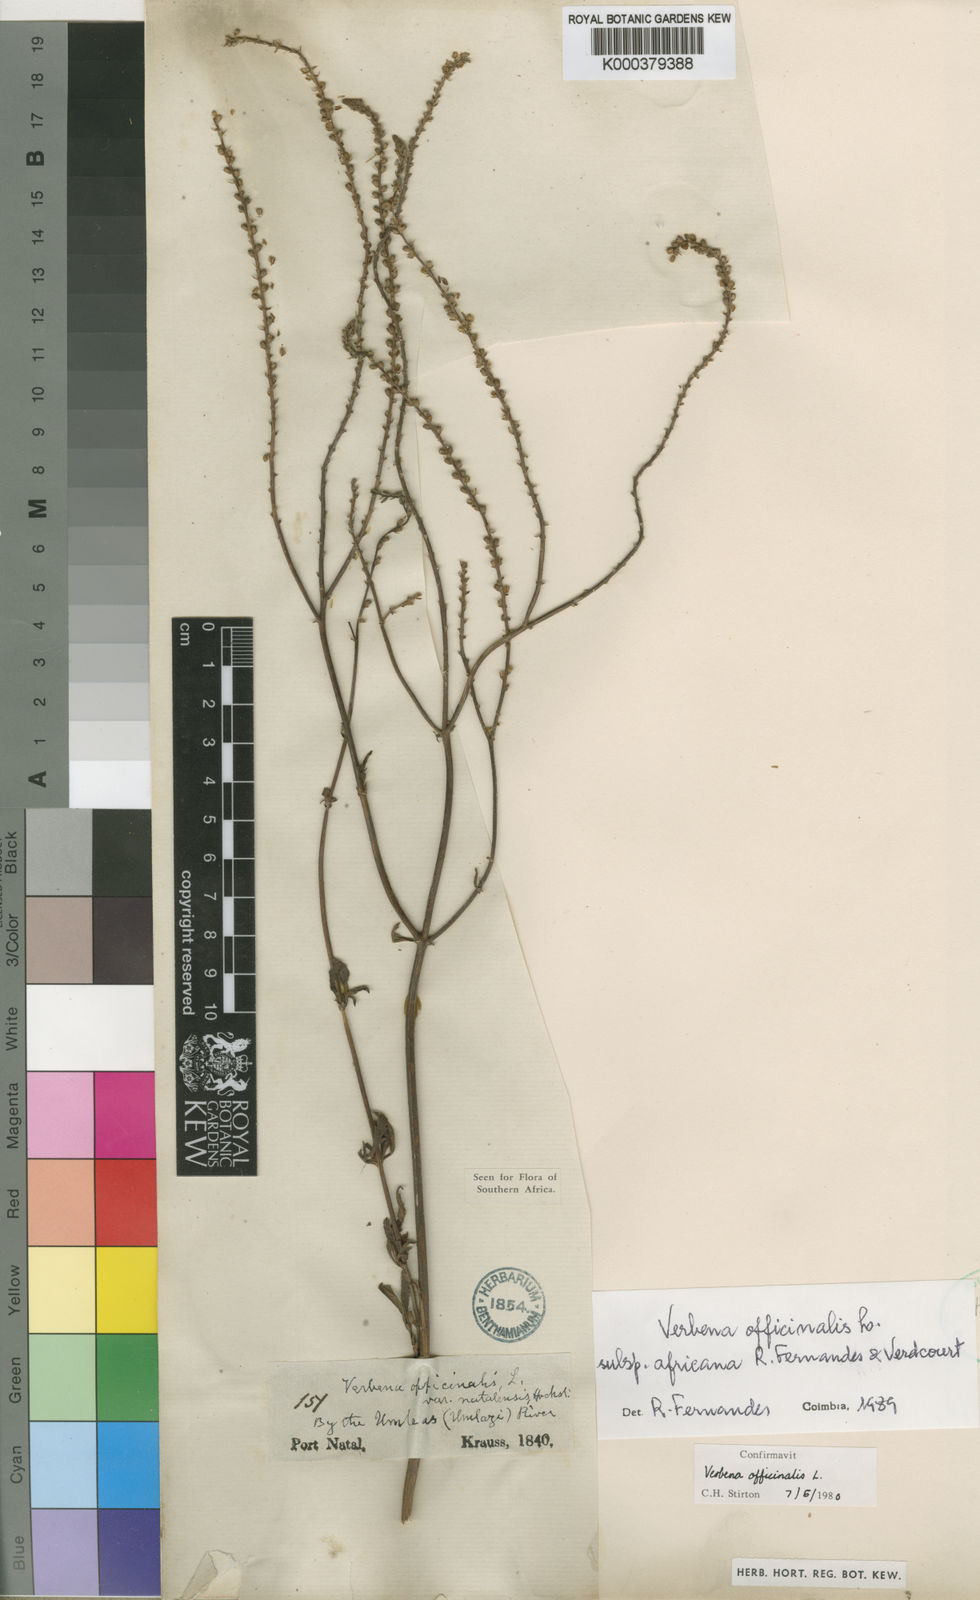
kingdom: Plantae
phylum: Tracheophyta
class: Magnoliopsida
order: Lamiales
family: Verbenaceae
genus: Verbena
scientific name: Verbena officinalis
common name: Vervain
